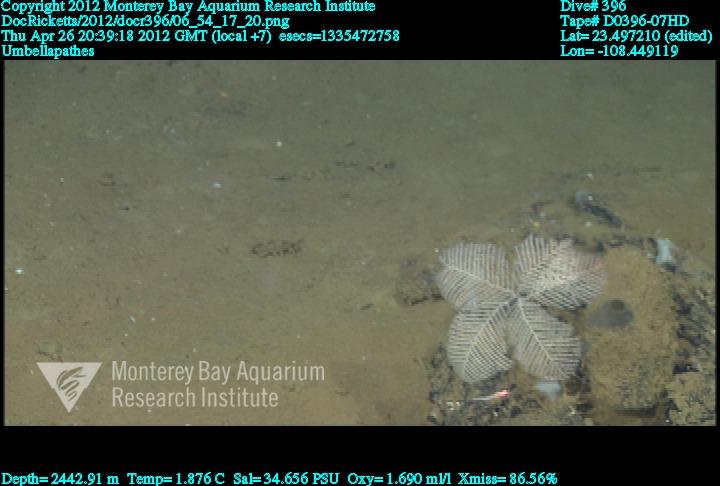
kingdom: Animalia
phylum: Cnidaria
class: Anthozoa
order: Antipatharia
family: Schizopathidae
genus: Umbellapathes
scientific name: Umbellapathes
